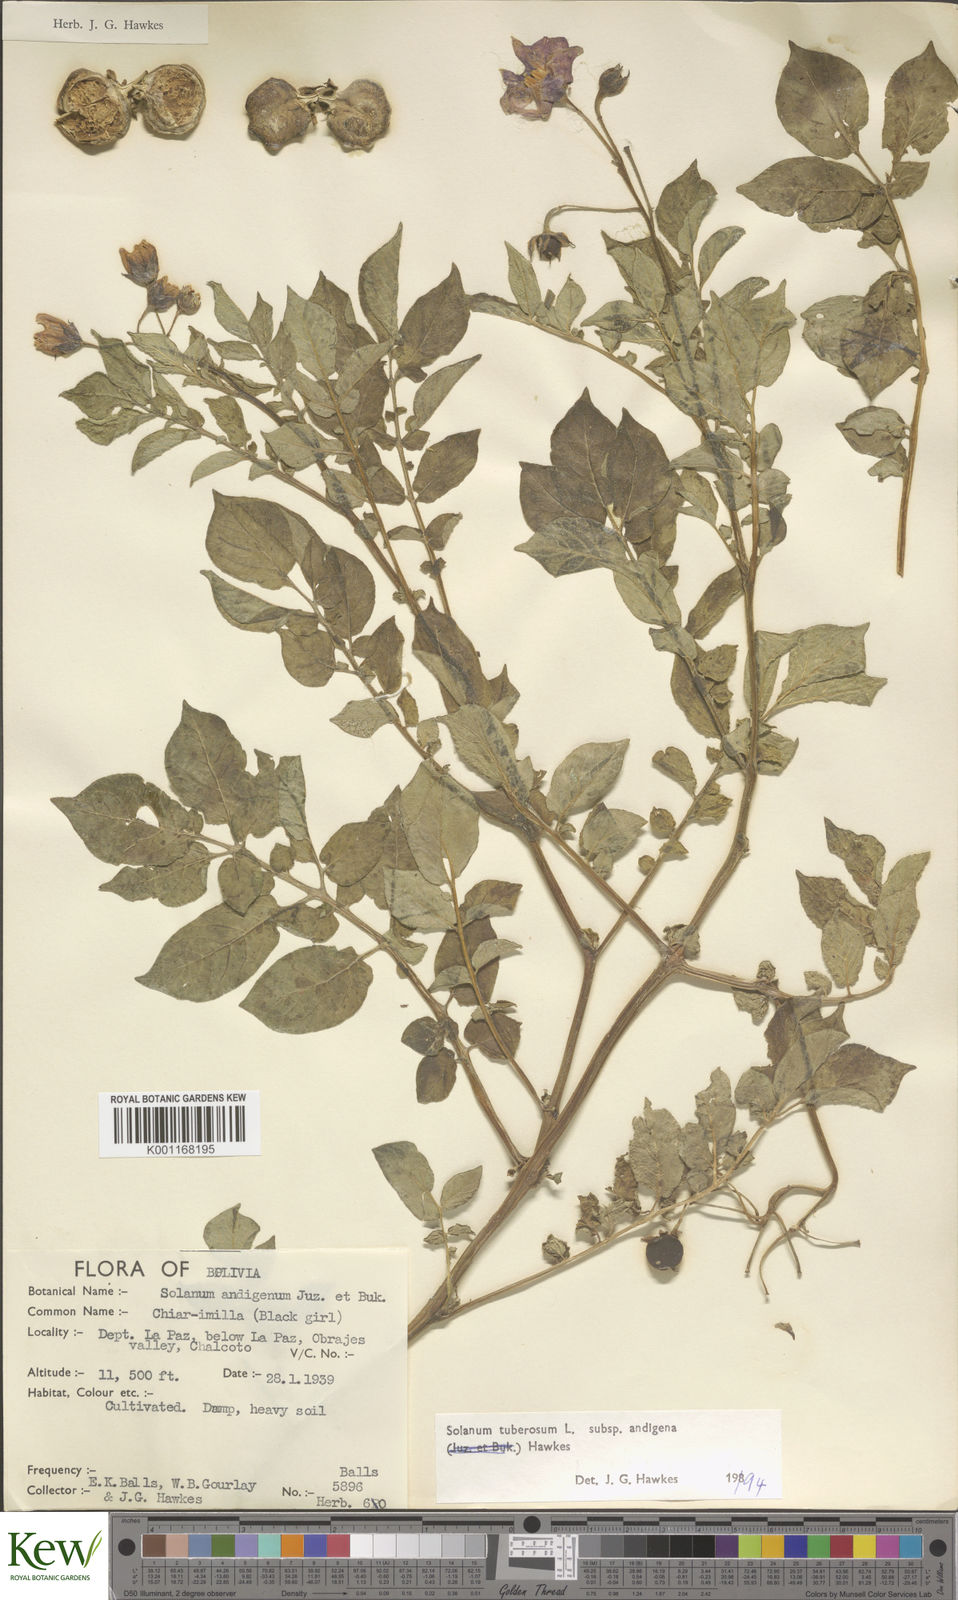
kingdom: Plantae
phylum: Tracheophyta
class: Magnoliopsida
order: Solanales
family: Solanaceae
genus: Solanum
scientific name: Solanum tuberosum
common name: Potato
